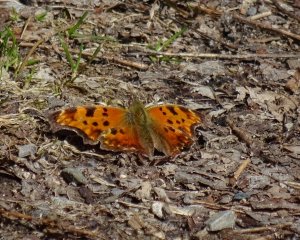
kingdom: Animalia
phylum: Arthropoda
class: Insecta
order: Lepidoptera
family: Nymphalidae
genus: Polygonia
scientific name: Polygonia comma
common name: Eastern Comma
